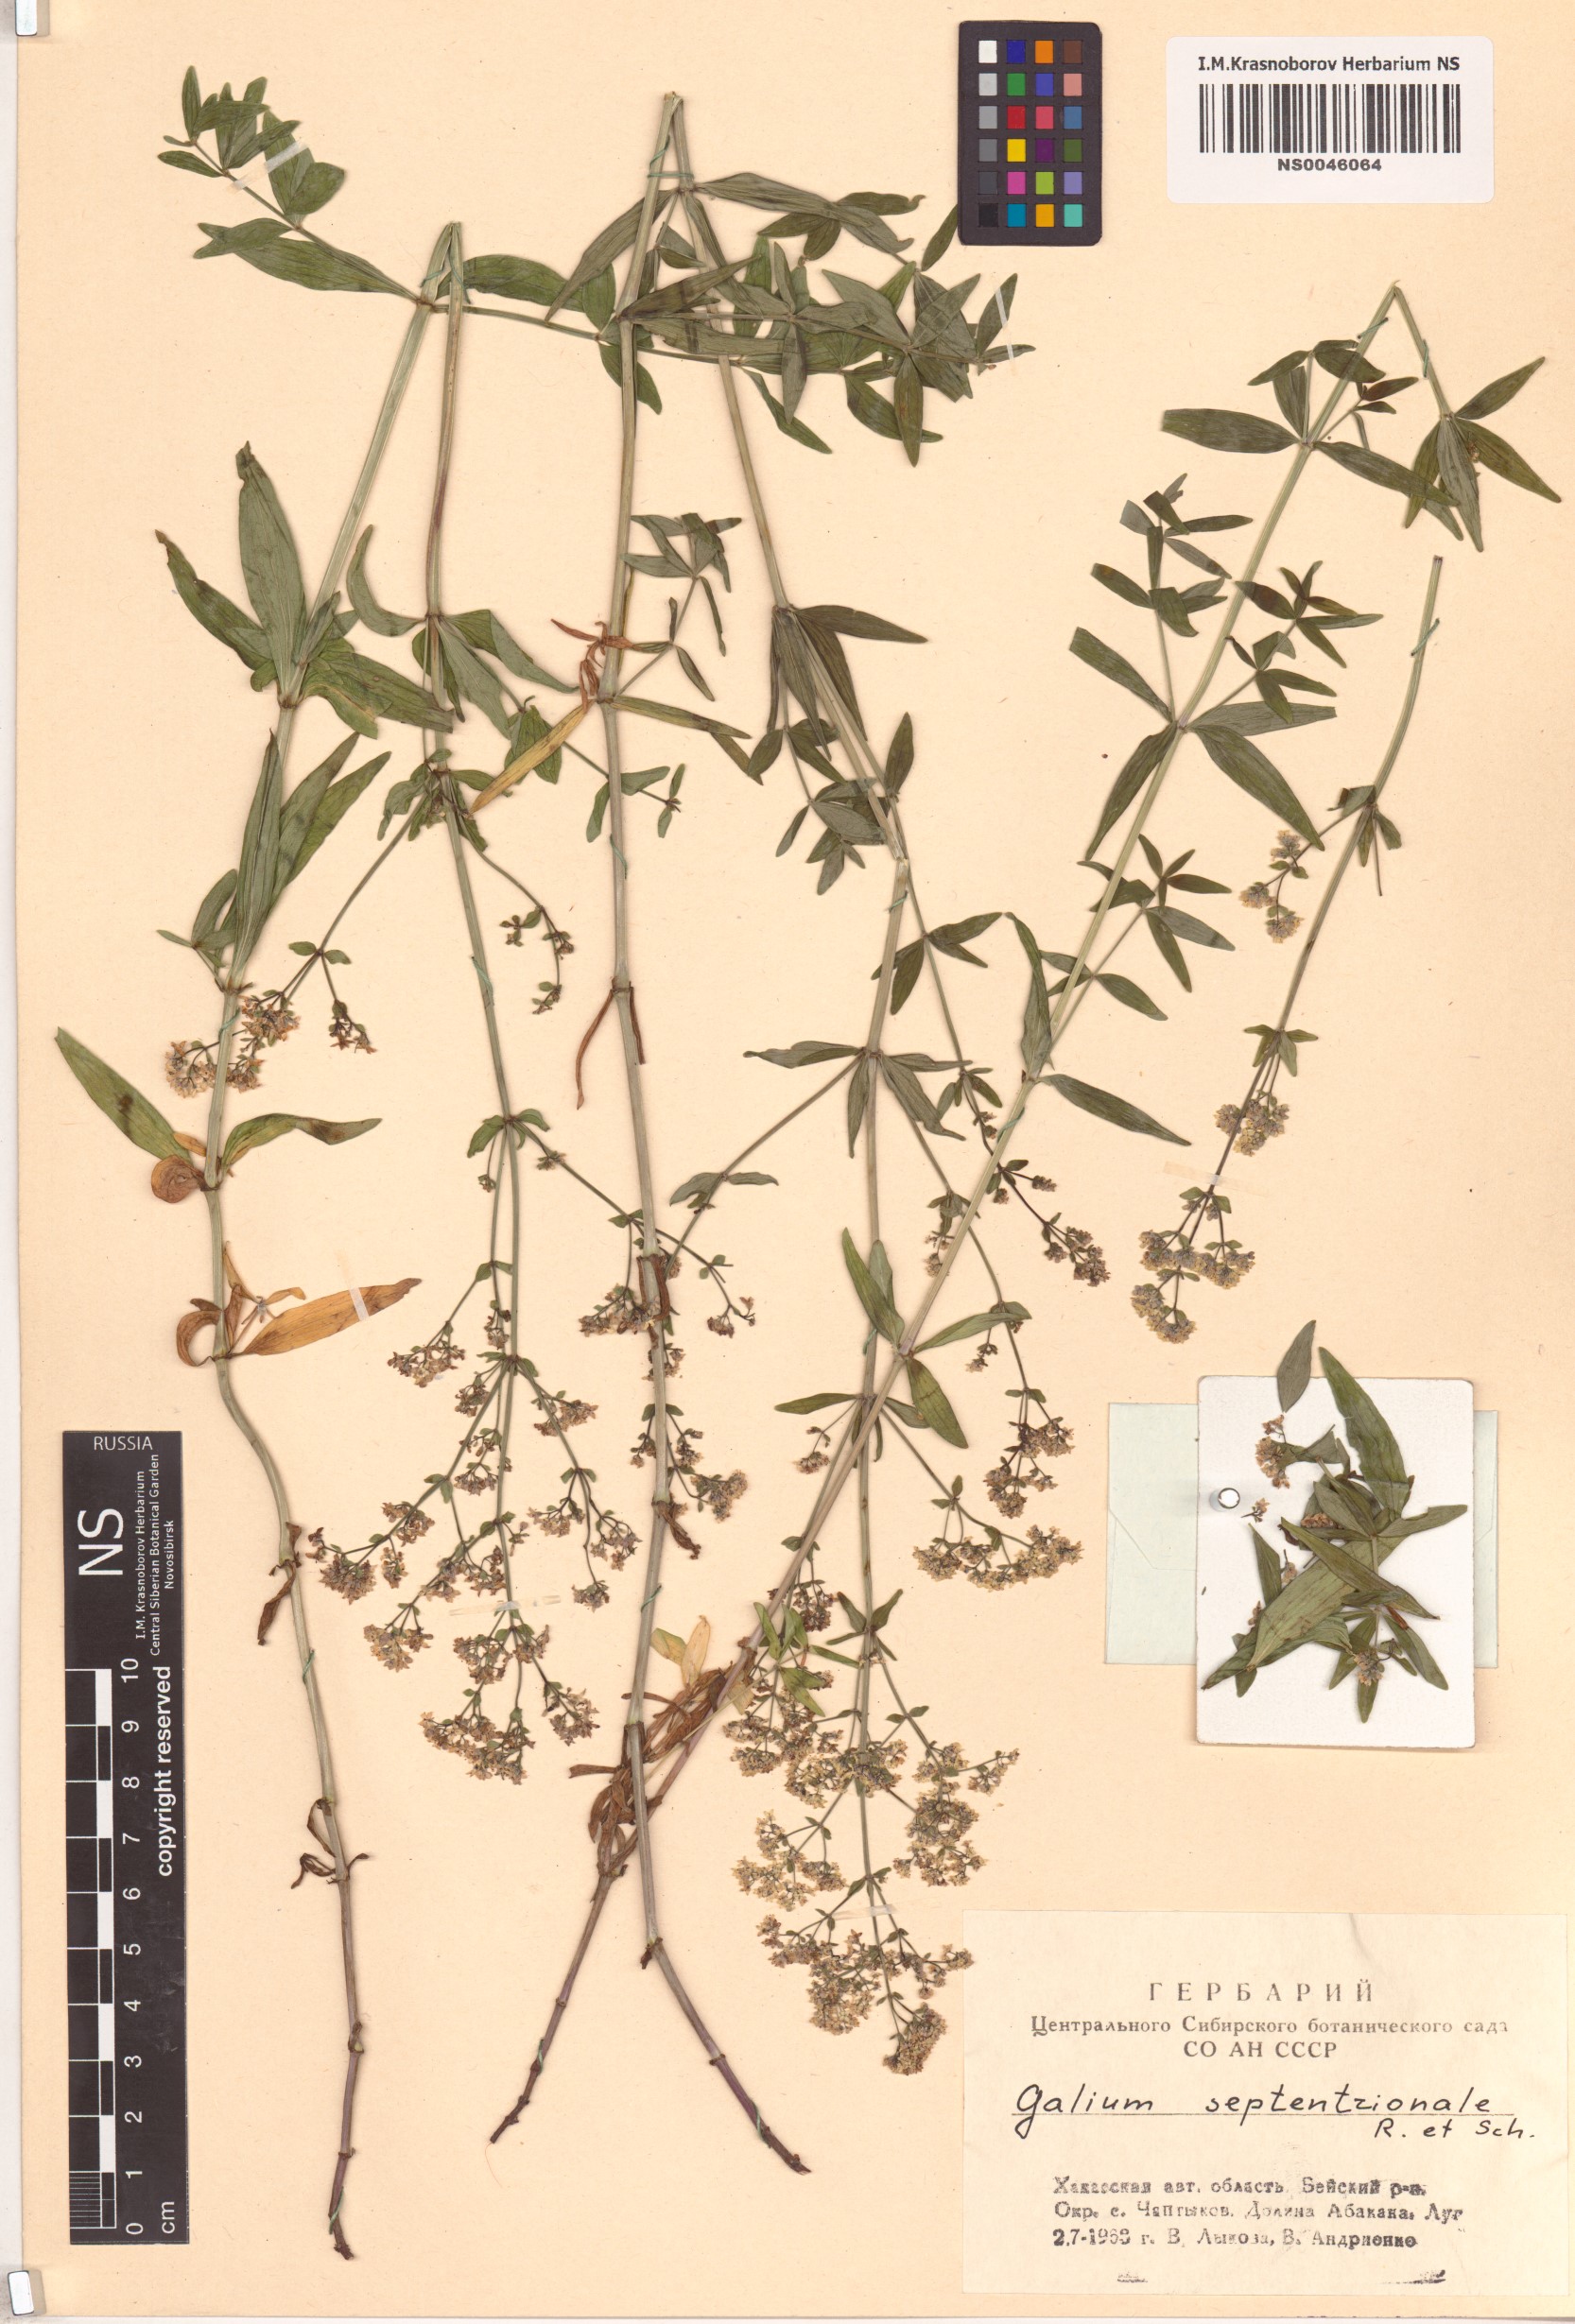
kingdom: Plantae
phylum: Tracheophyta
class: Magnoliopsida
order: Gentianales
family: Rubiaceae
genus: Galium
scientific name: Galium boreale
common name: Northern bedstraw
